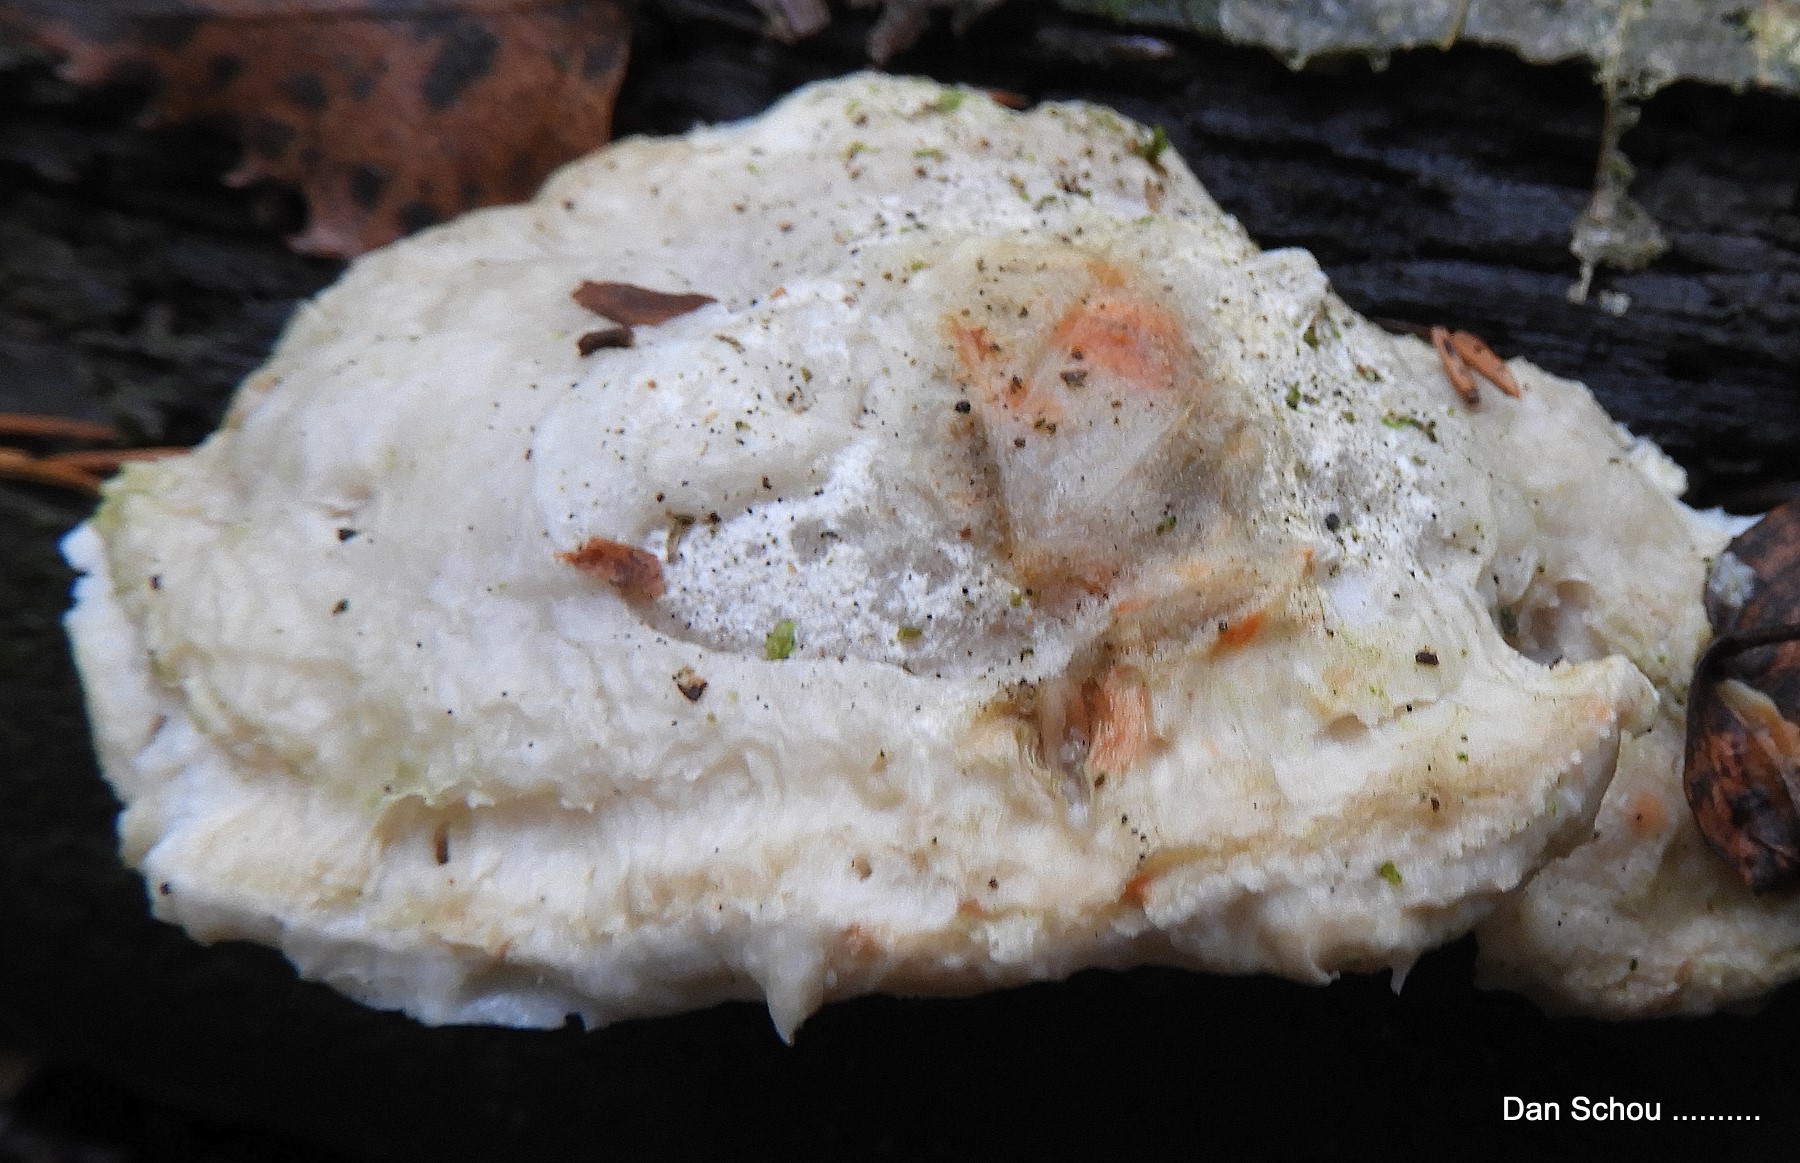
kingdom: Fungi
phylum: Basidiomycota
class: Agaricomycetes
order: Polyporales
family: Dacryobolaceae
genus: Postia
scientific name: Postia
